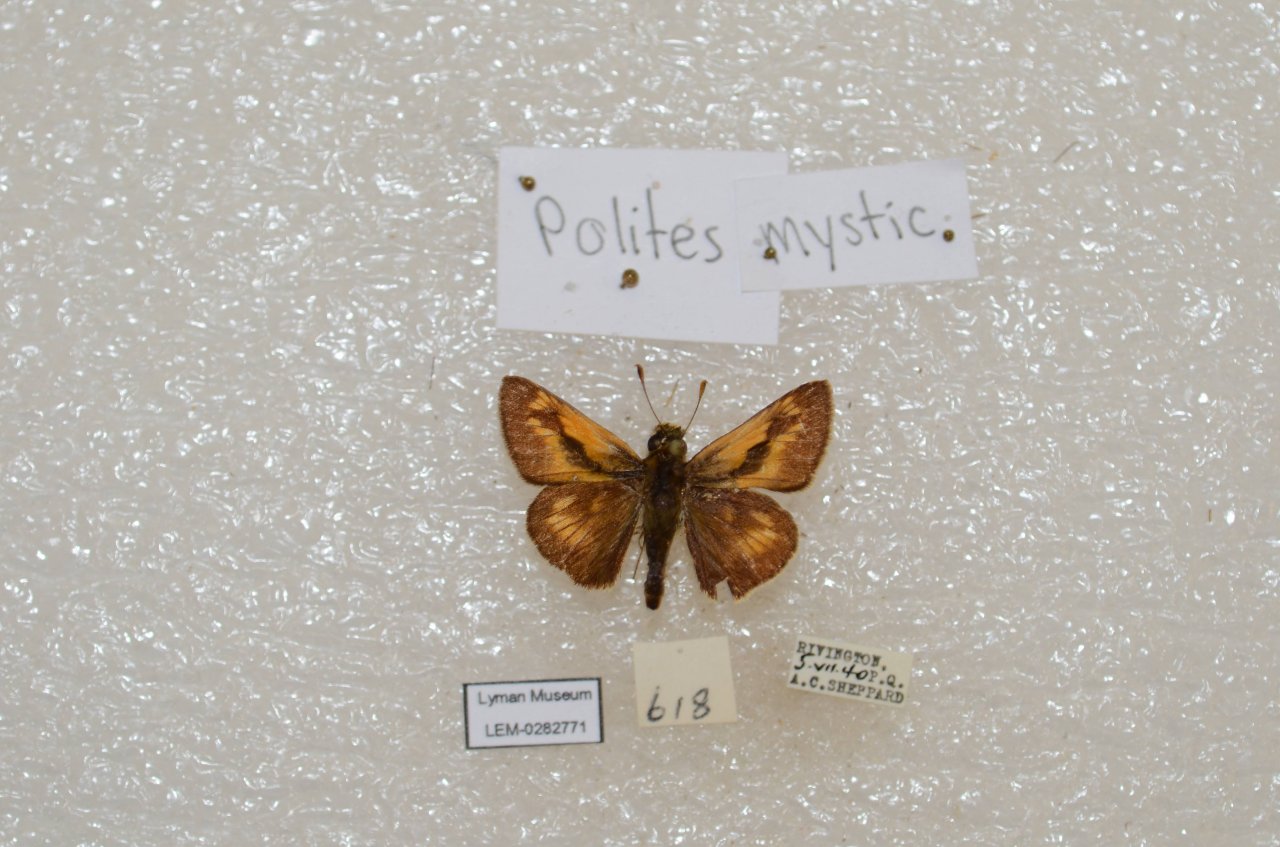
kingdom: Animalia
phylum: Arthropoda
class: Insecta
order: Lepidoptera
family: Hesperiidae
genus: Polites
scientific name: Polites
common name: Long Dash Skipper
